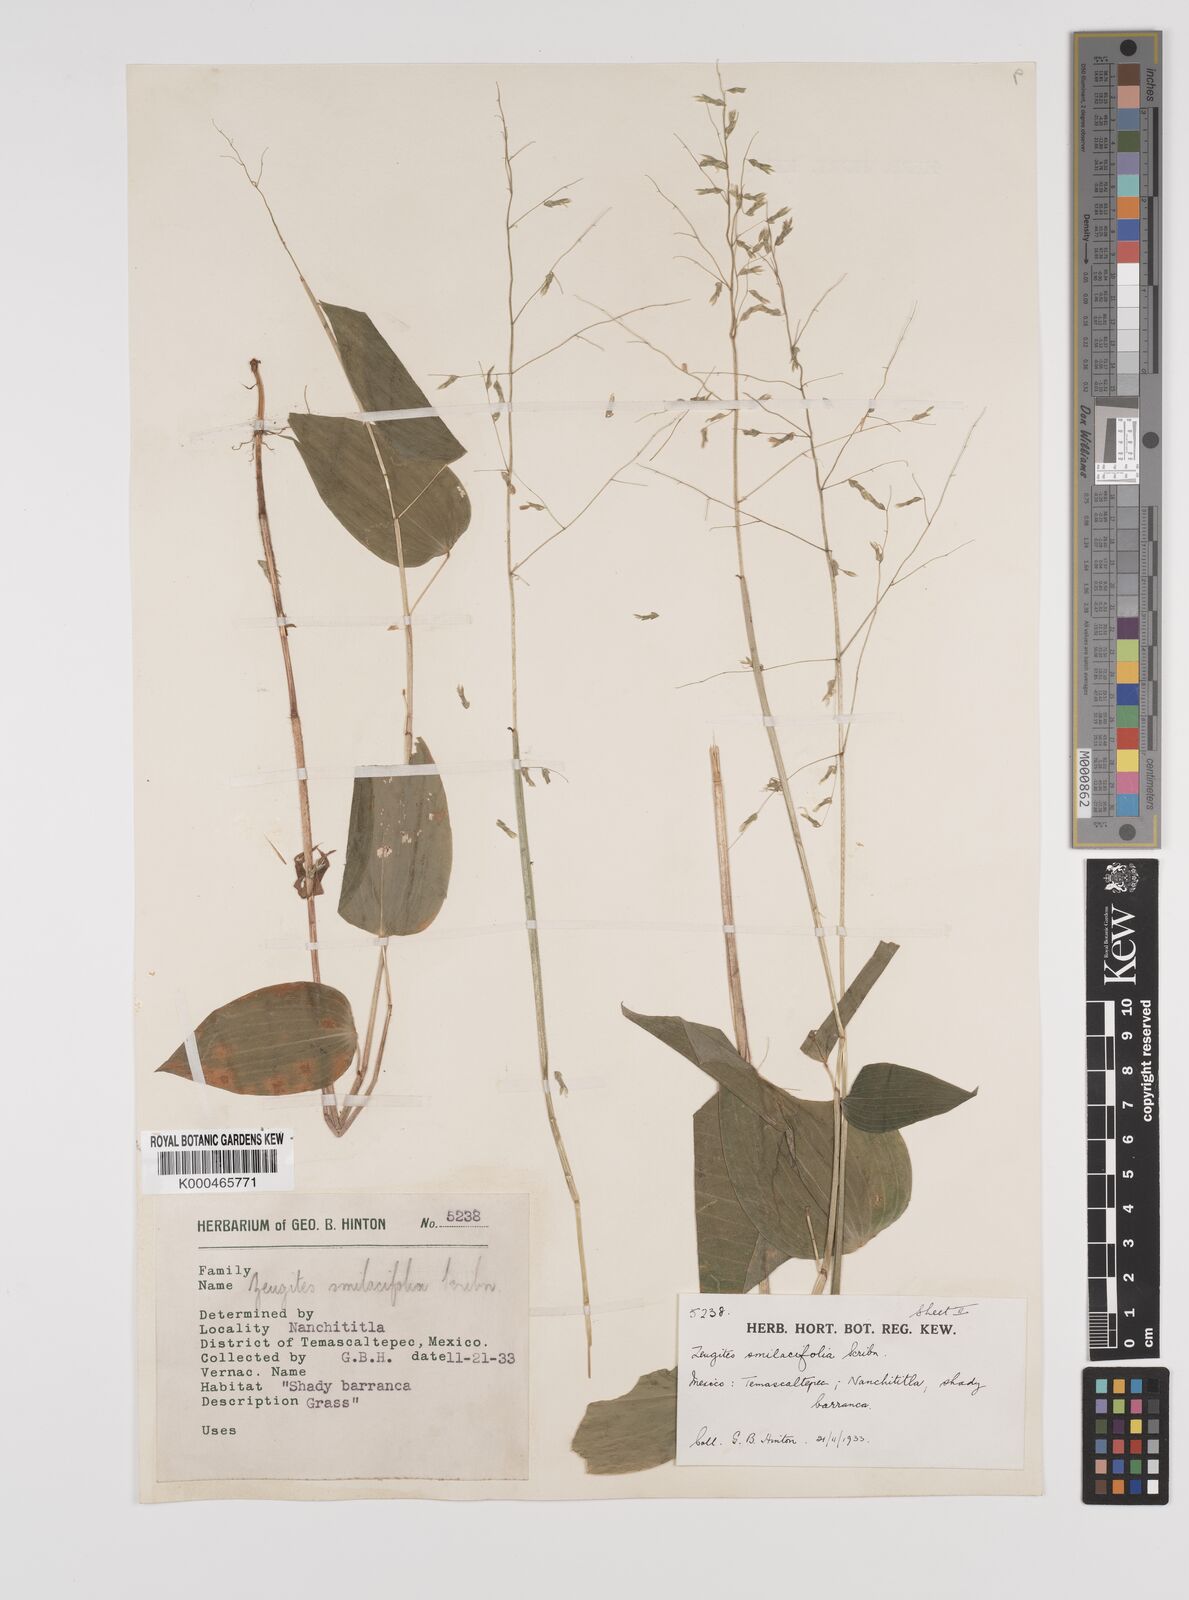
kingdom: Plantae
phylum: Tracheophyta
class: Liliopsida
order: Poales
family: Poaceae
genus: Zeugites
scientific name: Zeugites smilacifolius
